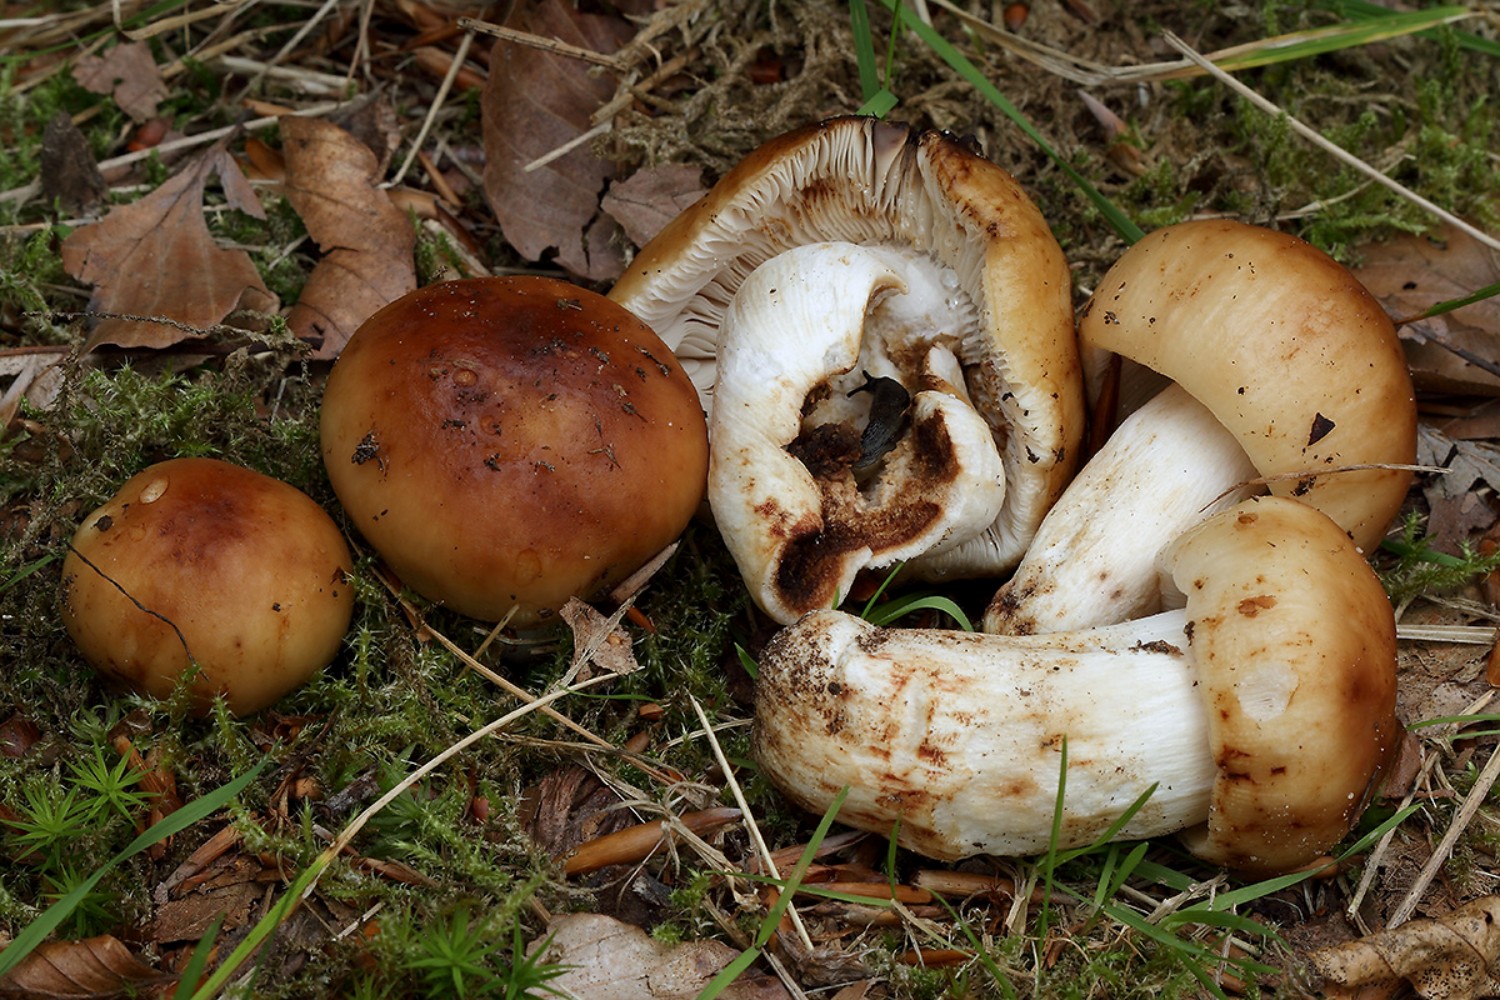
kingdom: Fungi
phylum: Basidiomycota
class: Agaricomycetes
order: Russulales
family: Russulaceae
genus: Russula
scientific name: Russula grata
